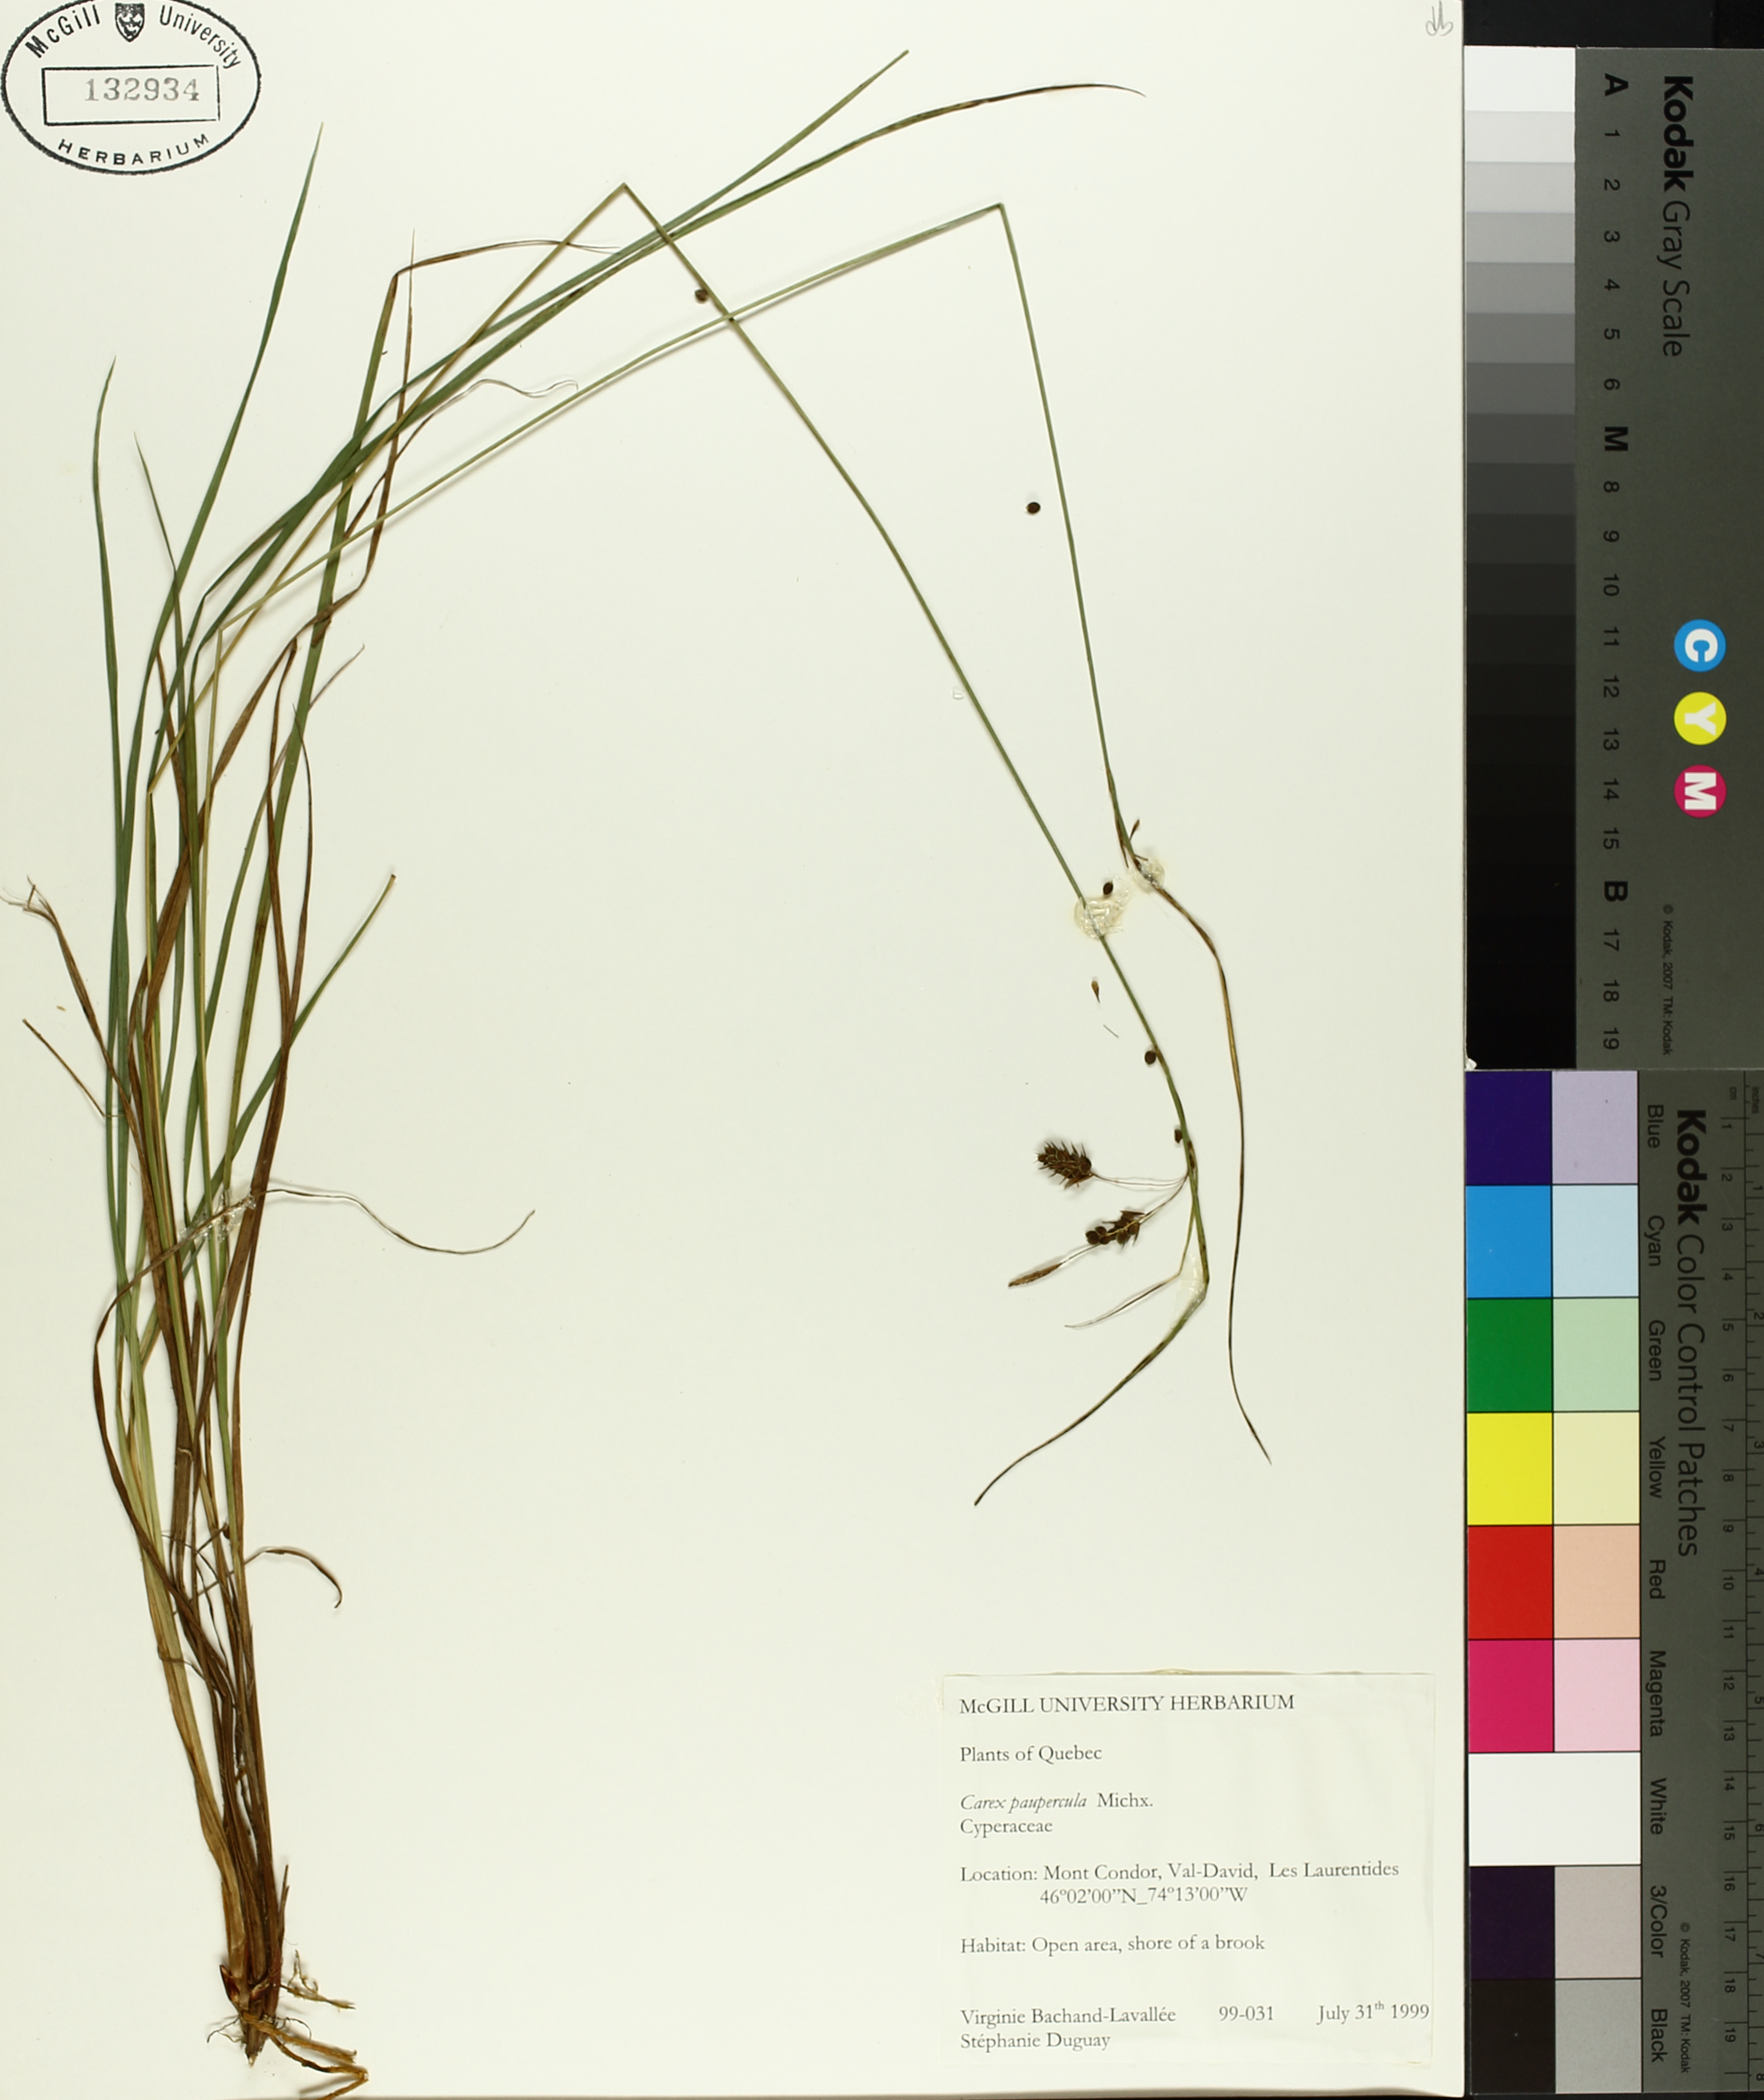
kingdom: Plantae
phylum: Tracheophyta
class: Liliopsida
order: Poales
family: Cyperaceae
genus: Carex
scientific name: Carex magellanica
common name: Bog sedge
